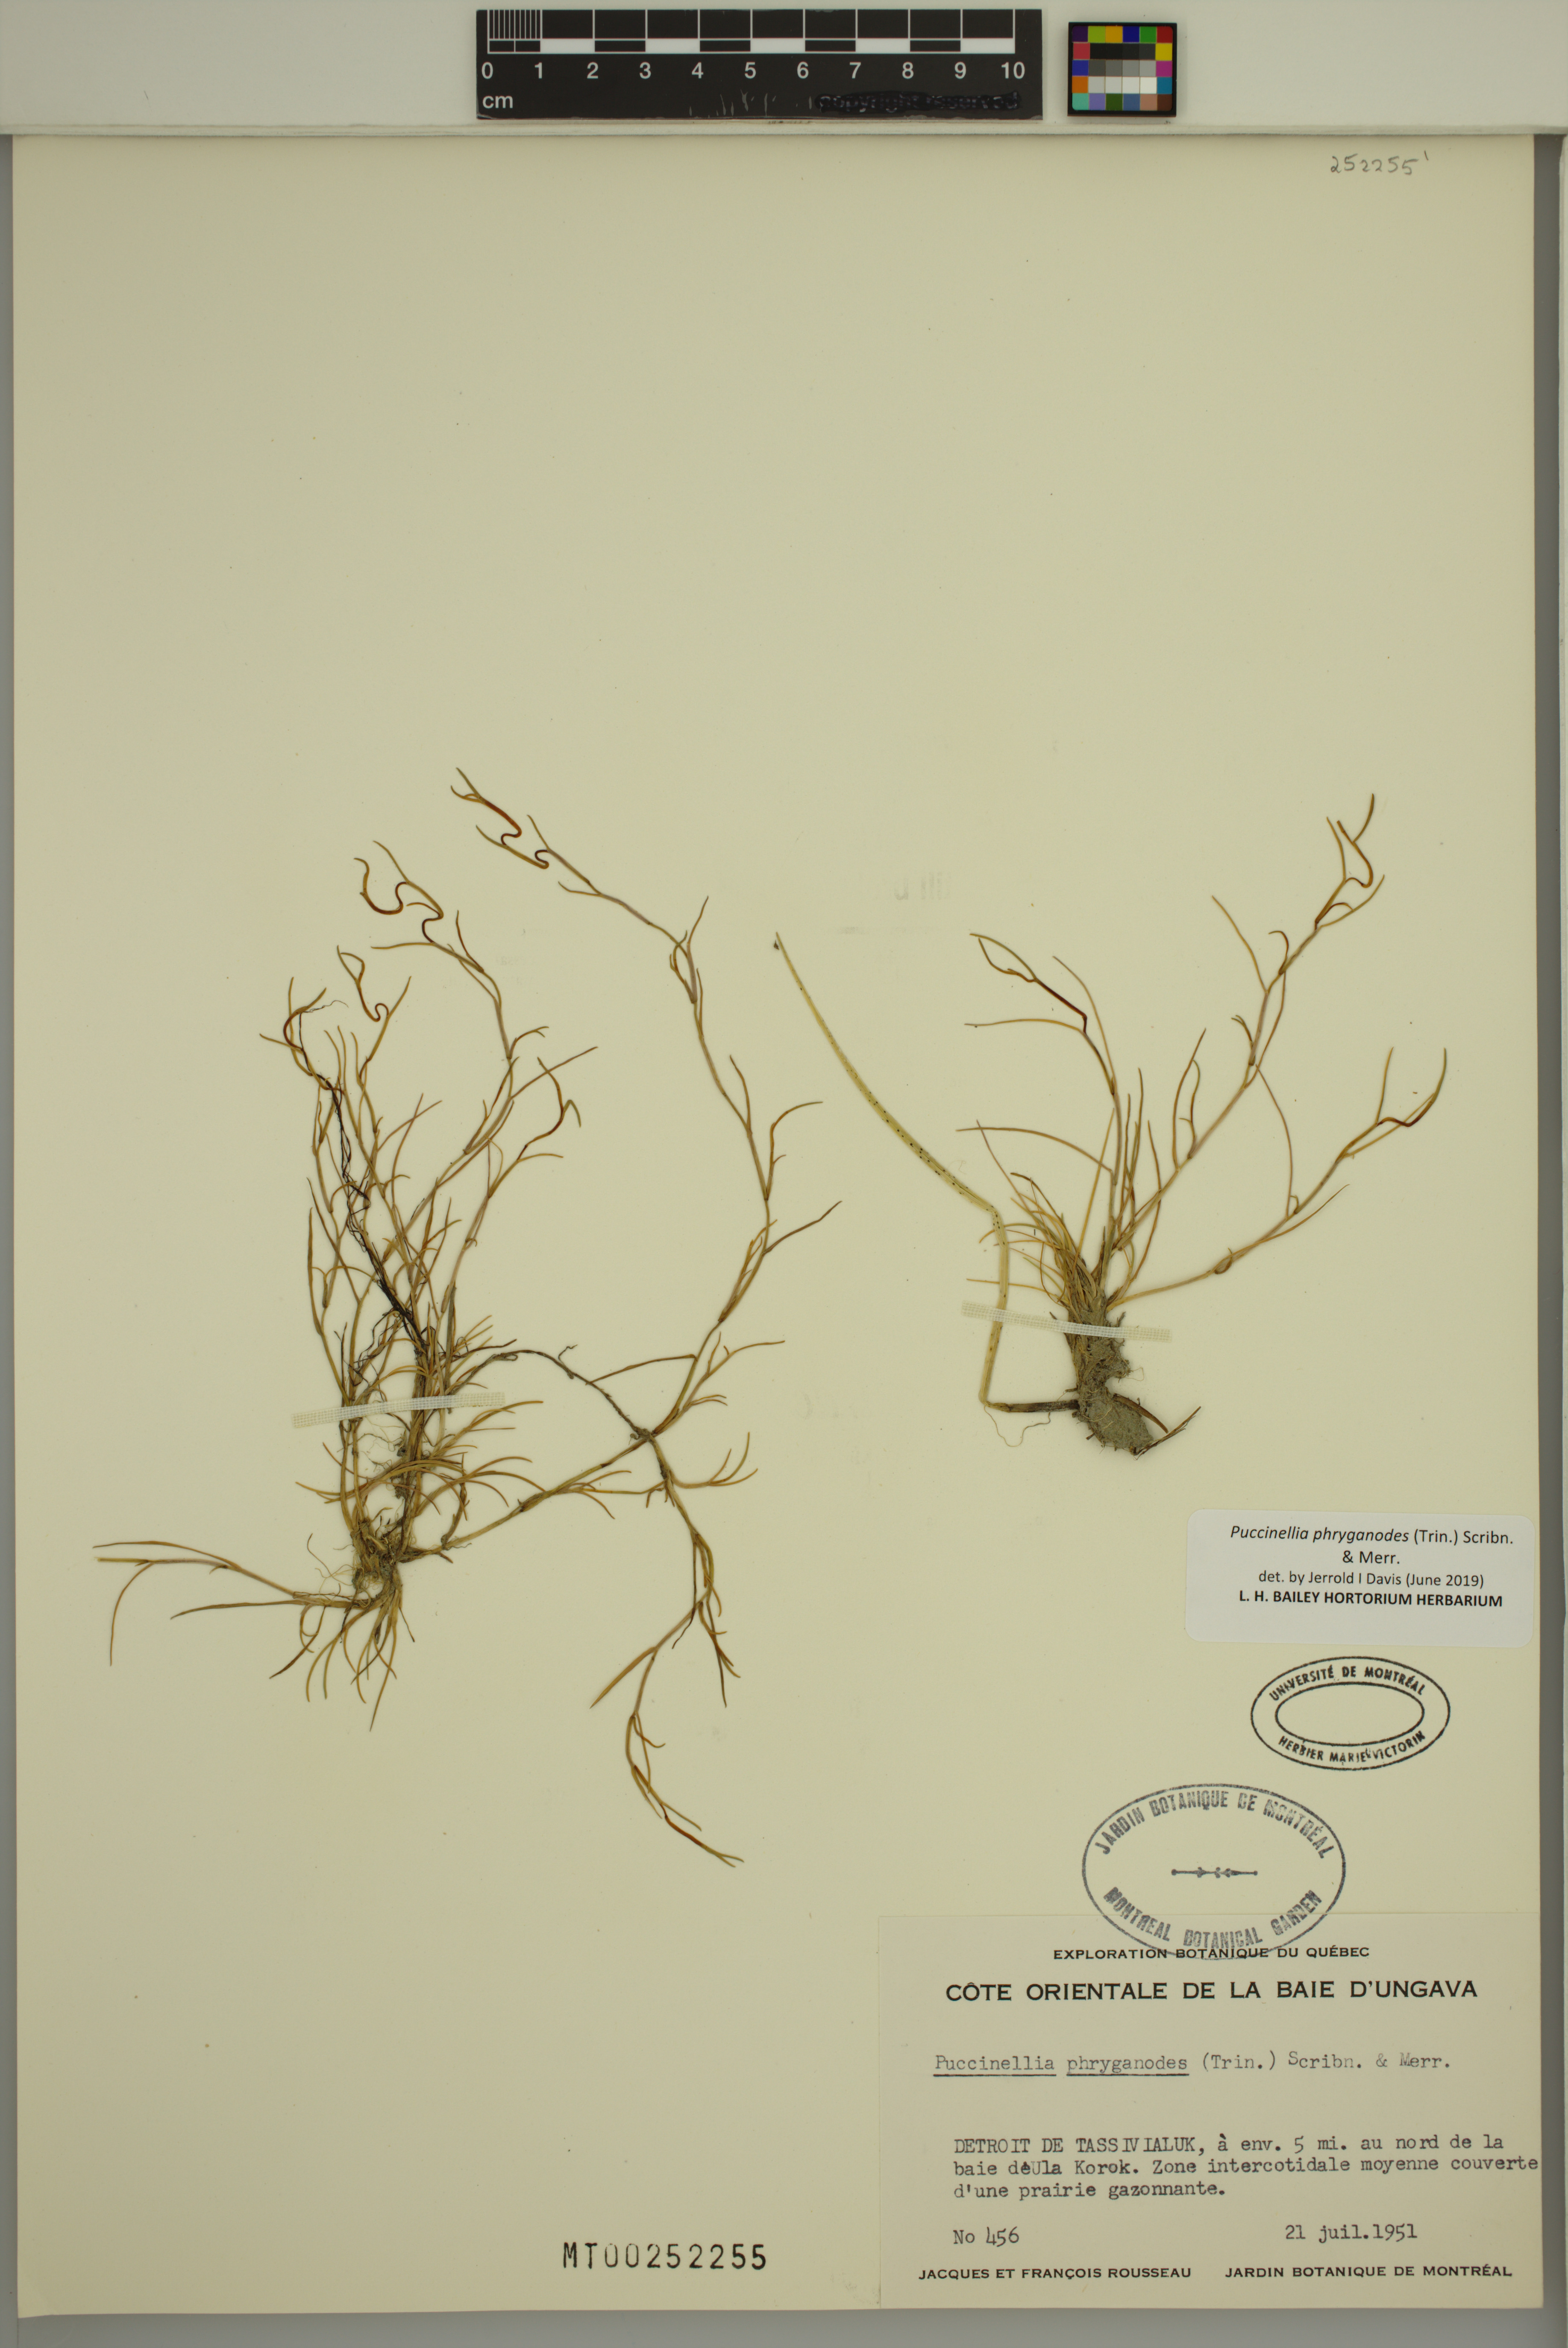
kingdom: Plantae
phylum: Tracheophyta
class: Liliopsida
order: Poales
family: Poaceae
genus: Puccinellia
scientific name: Puccinellia phryganodes
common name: Creeping alkaligrass
